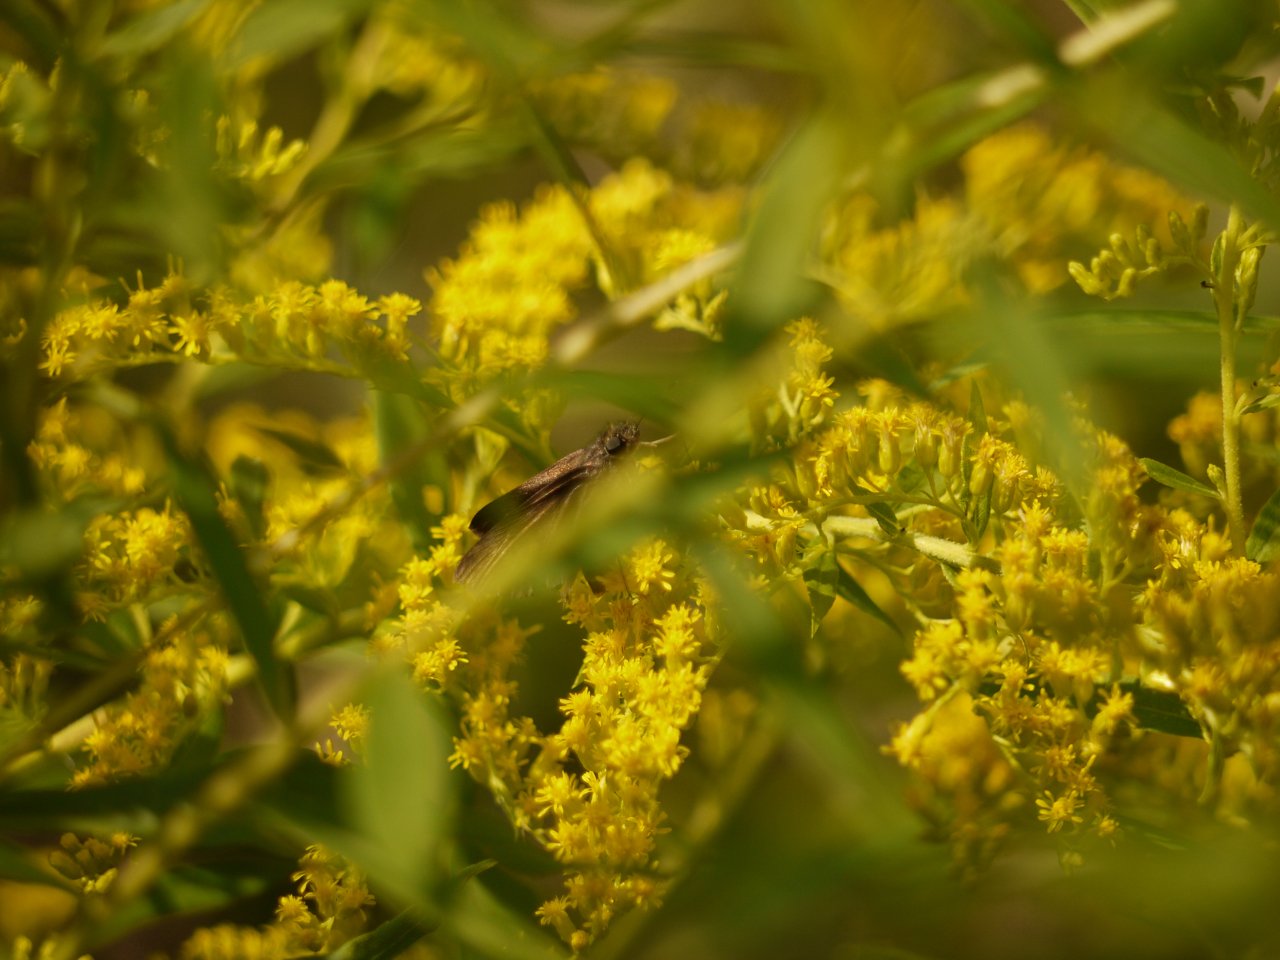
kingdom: Animalia
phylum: Arthropoda
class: Insecta
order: Lepidoptera
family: Hesperiidae
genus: Euphyes
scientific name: Euphyes vestris
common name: Dun Skipper
